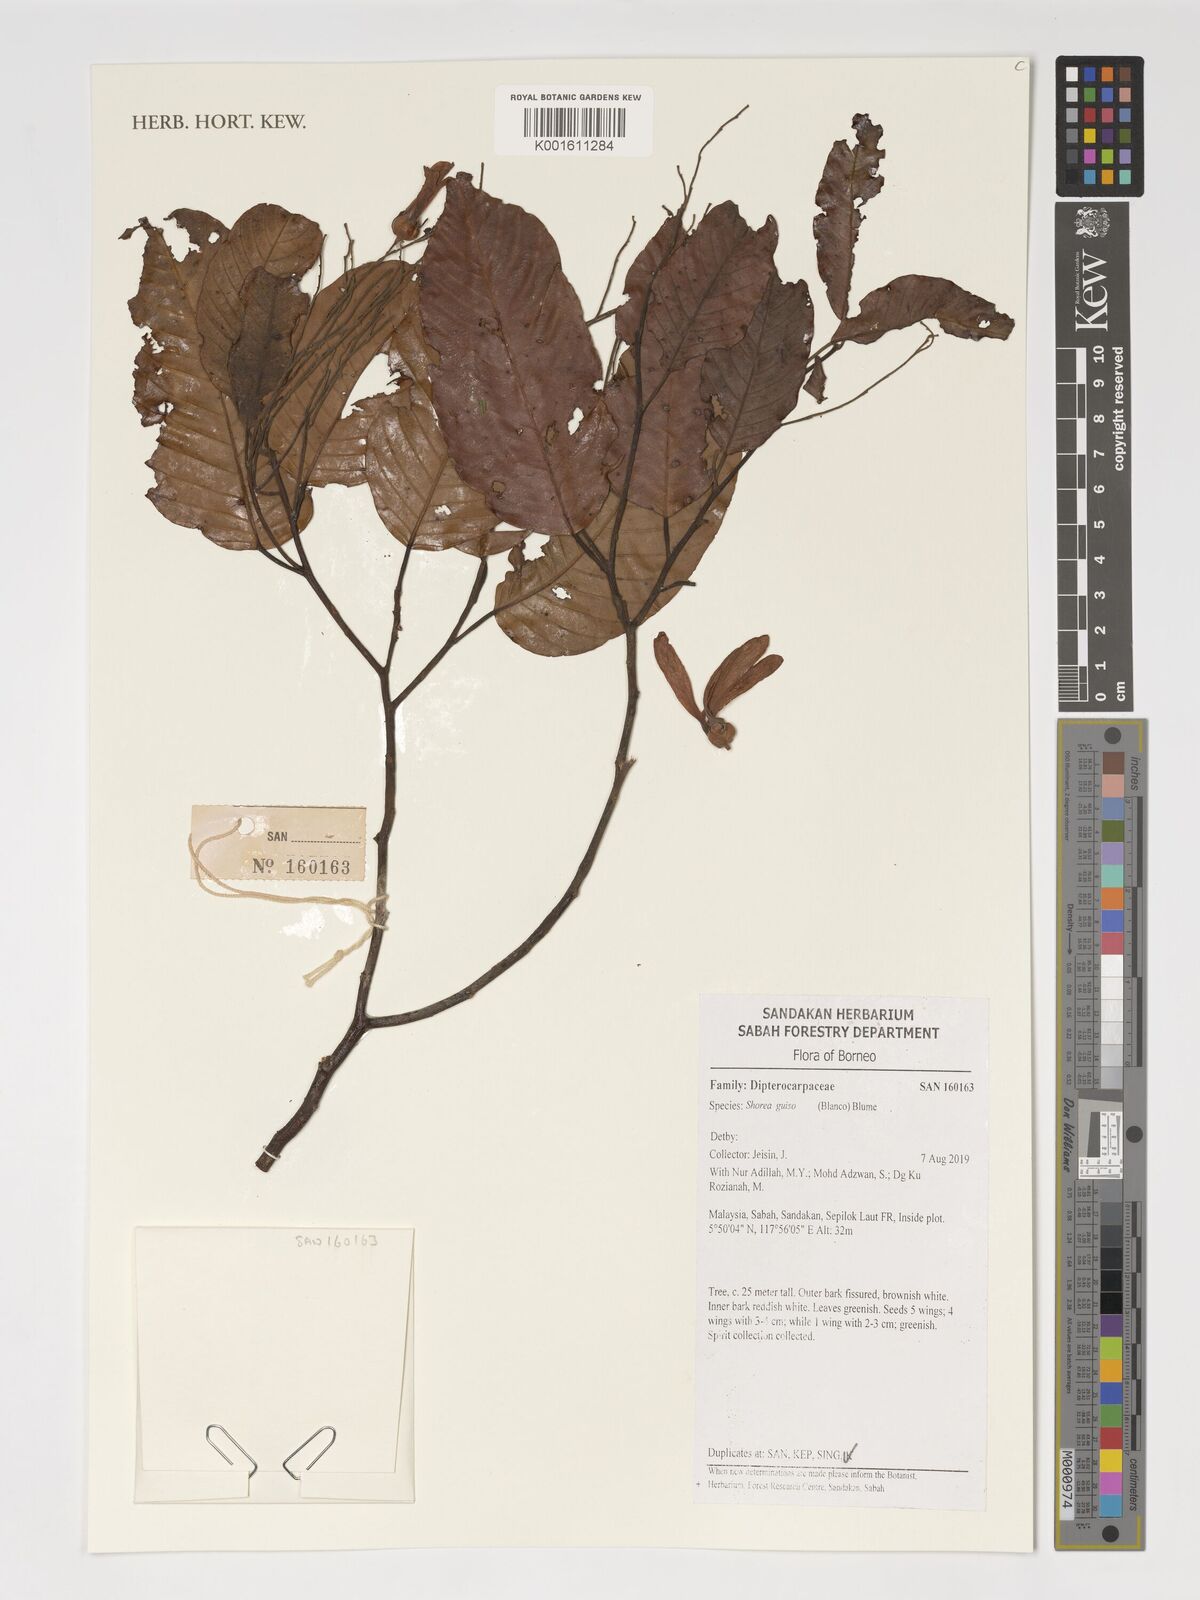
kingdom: Plantae
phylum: Tracheophyta
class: Magnoliopsida
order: Malvales
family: Dipterocarpaceae
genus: Shorea
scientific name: Shorea guiso
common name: Red balau
